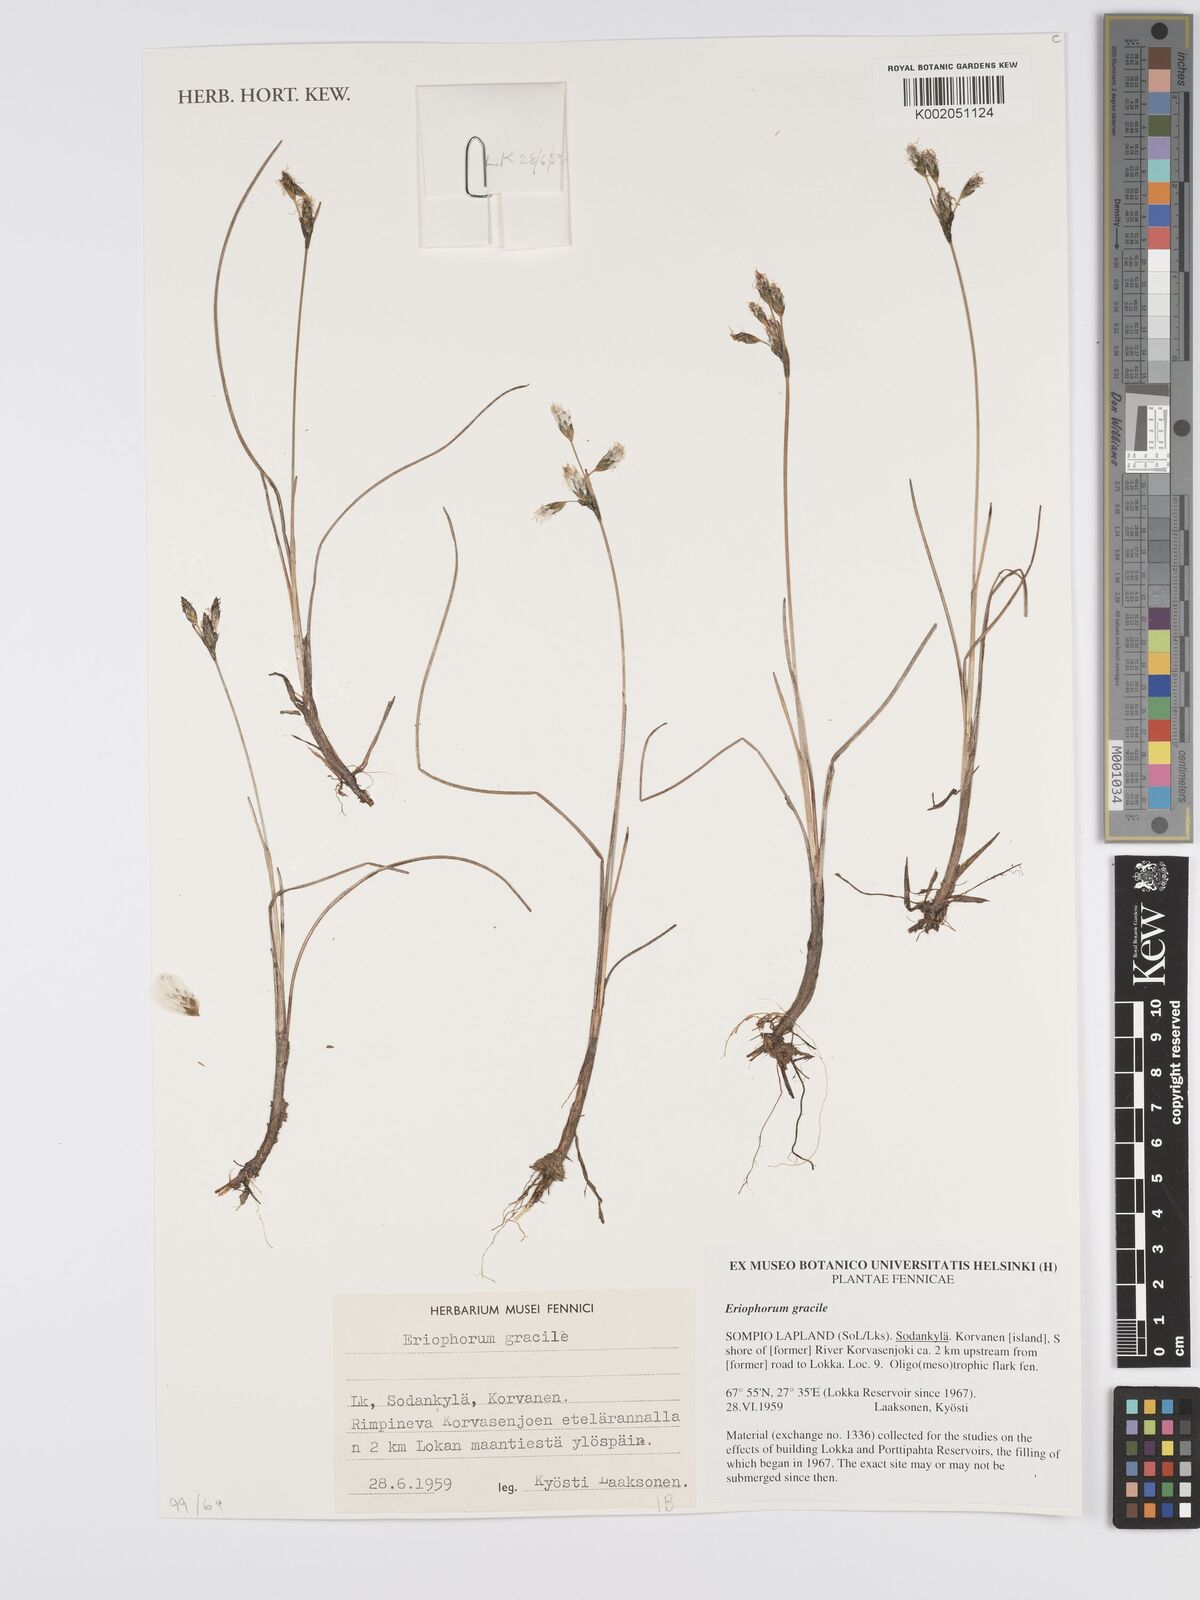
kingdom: Plantae
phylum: Tracheophyta
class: Liliopsida
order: Poales
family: Cyperaceae
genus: Eriophorum
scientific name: Eriophorum gracile
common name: Slender cottongrass
